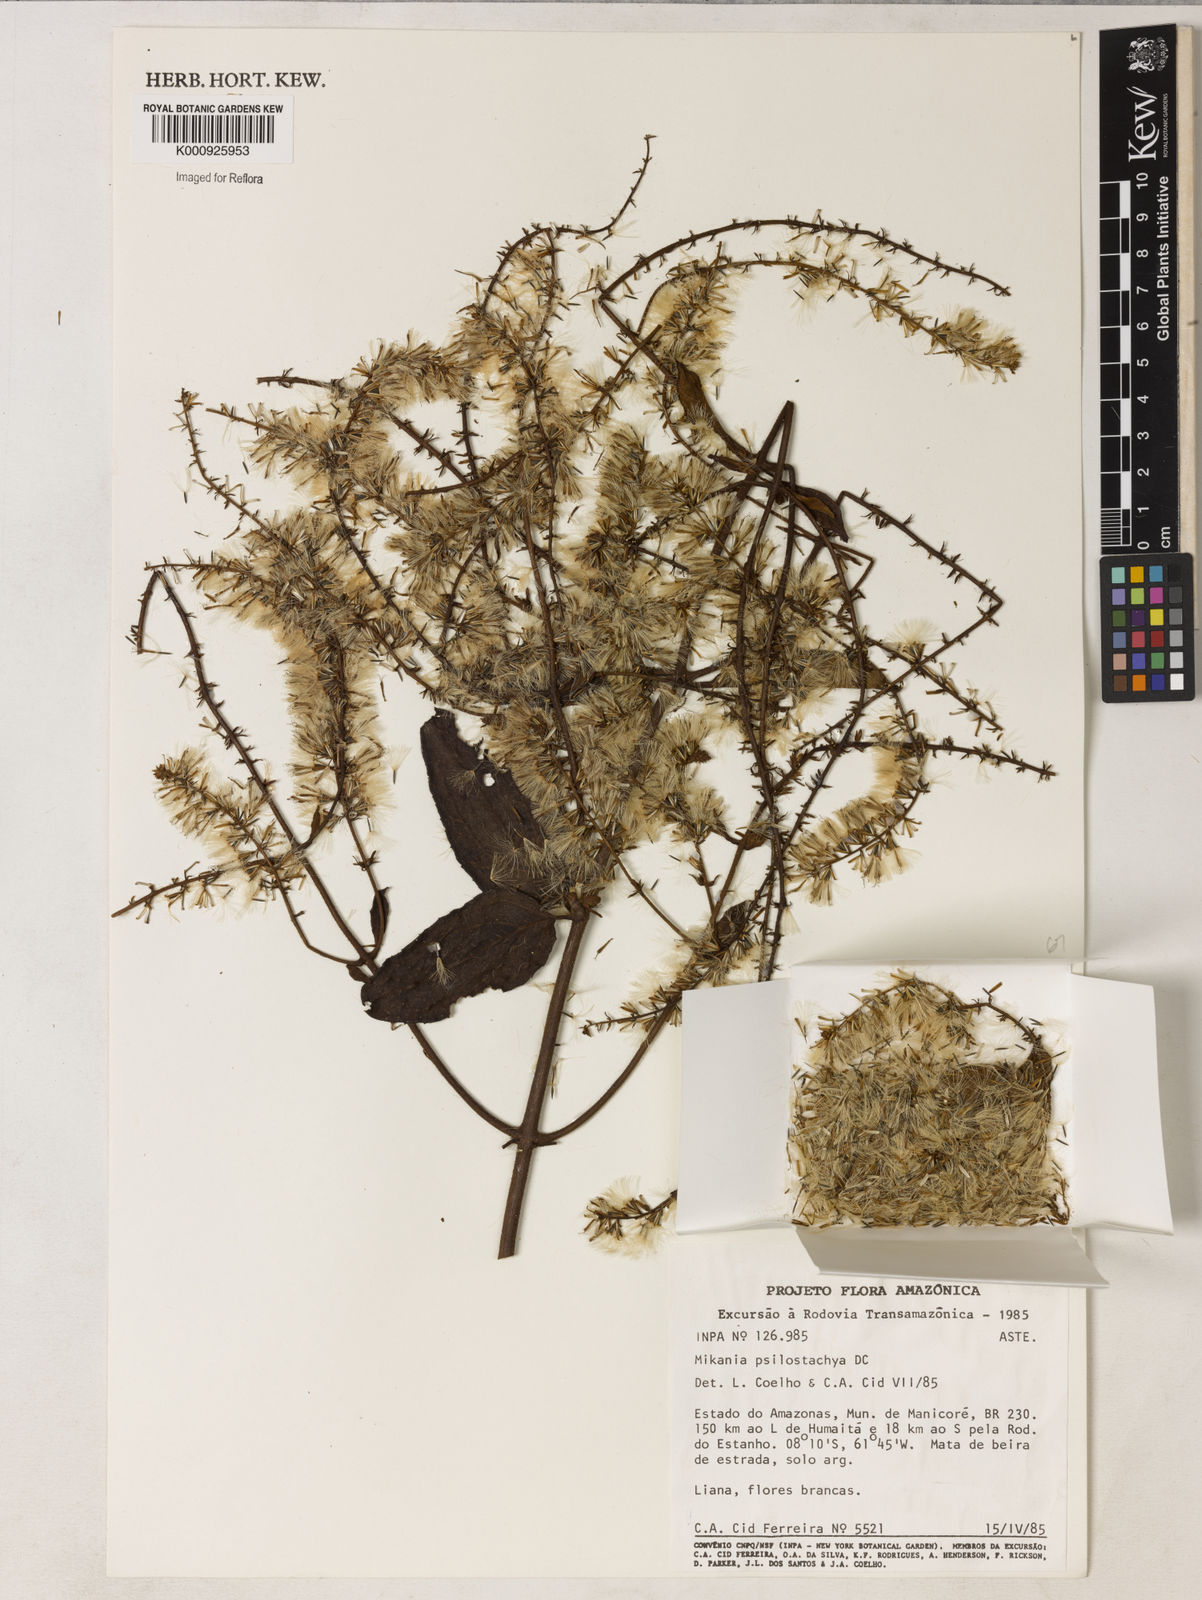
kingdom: Plantae
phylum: Tracheophyta
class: Magnoliopsida
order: Asterales
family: Asteraceae
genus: Mikania
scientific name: Mikania psilostachya
